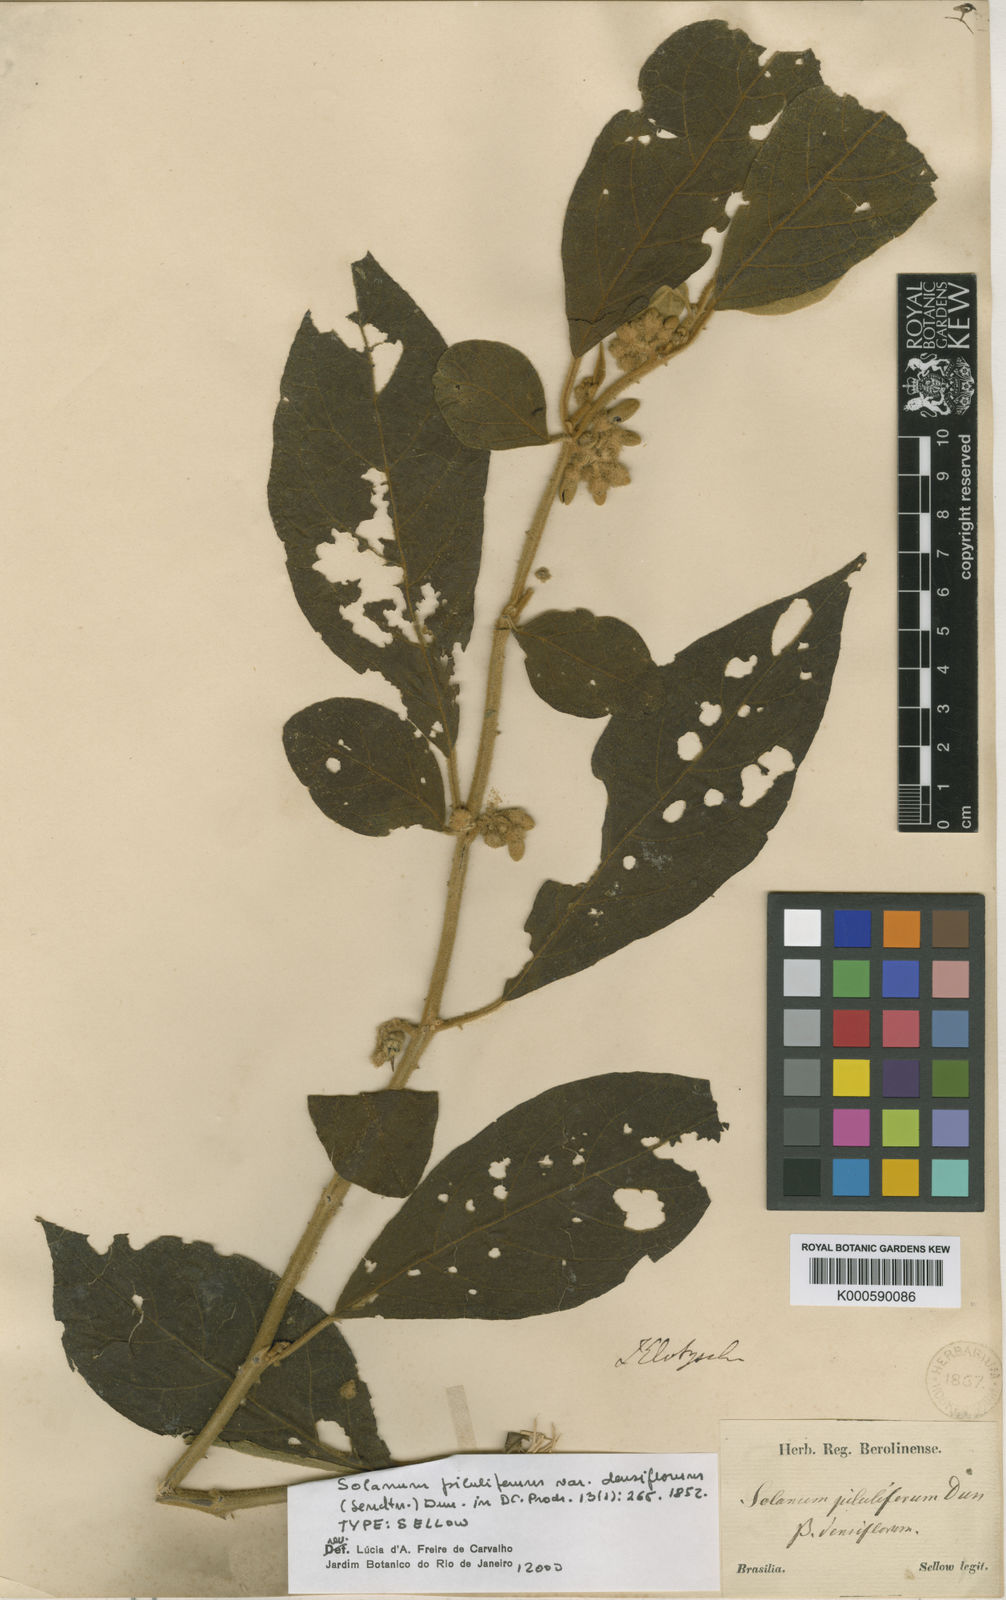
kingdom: Plantae
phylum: Tracheophyta
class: Magnoliopsida
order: Solanales
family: Solanaceae
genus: Solanum
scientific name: Solanum piluliferum
